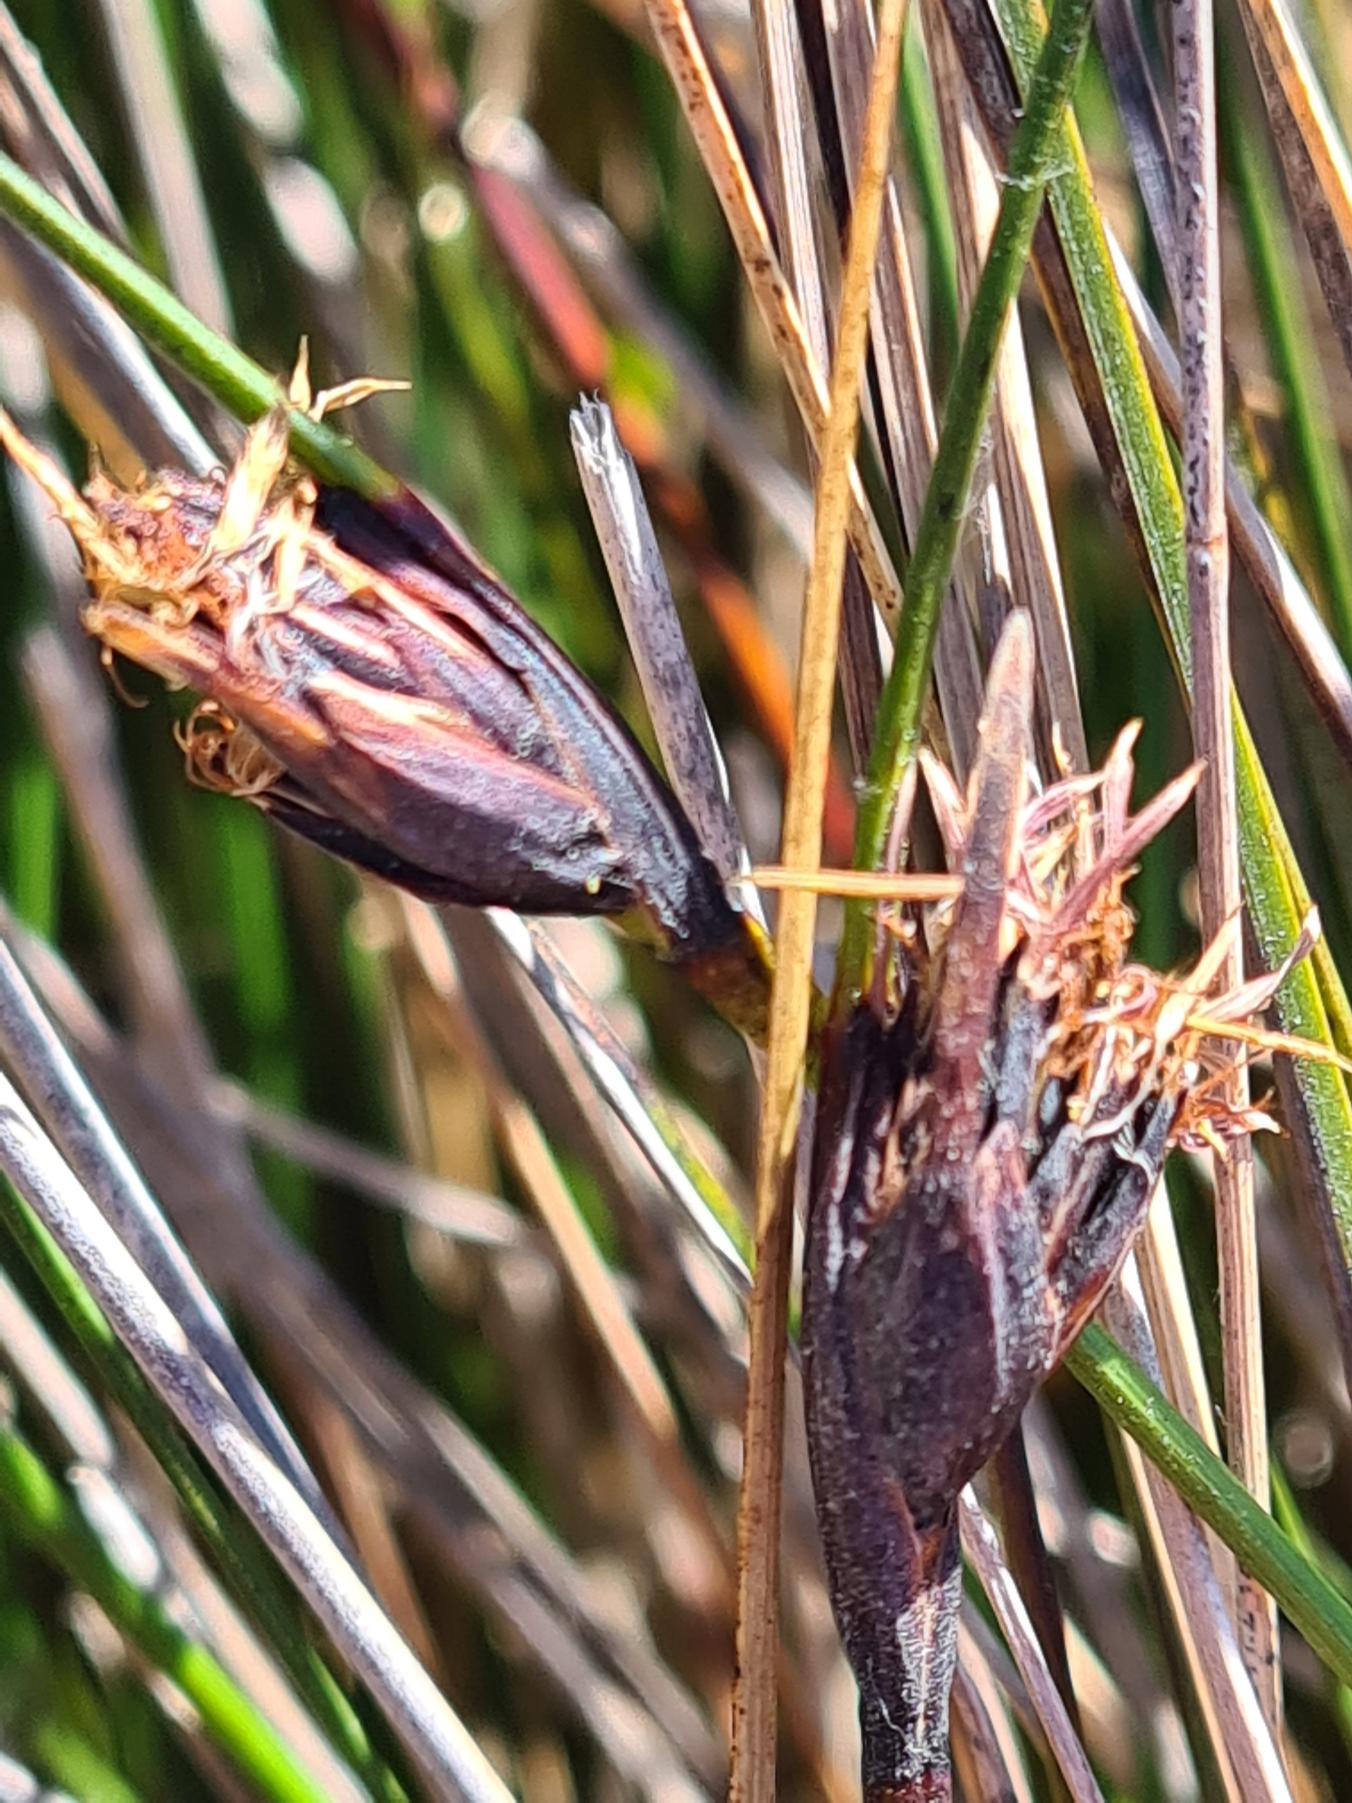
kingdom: Plantae
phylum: Tracheophyta
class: Liliopsida
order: Poales
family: Cyperaceae
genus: Schoenus
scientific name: Schoenus nigricans
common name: Sort skæne
